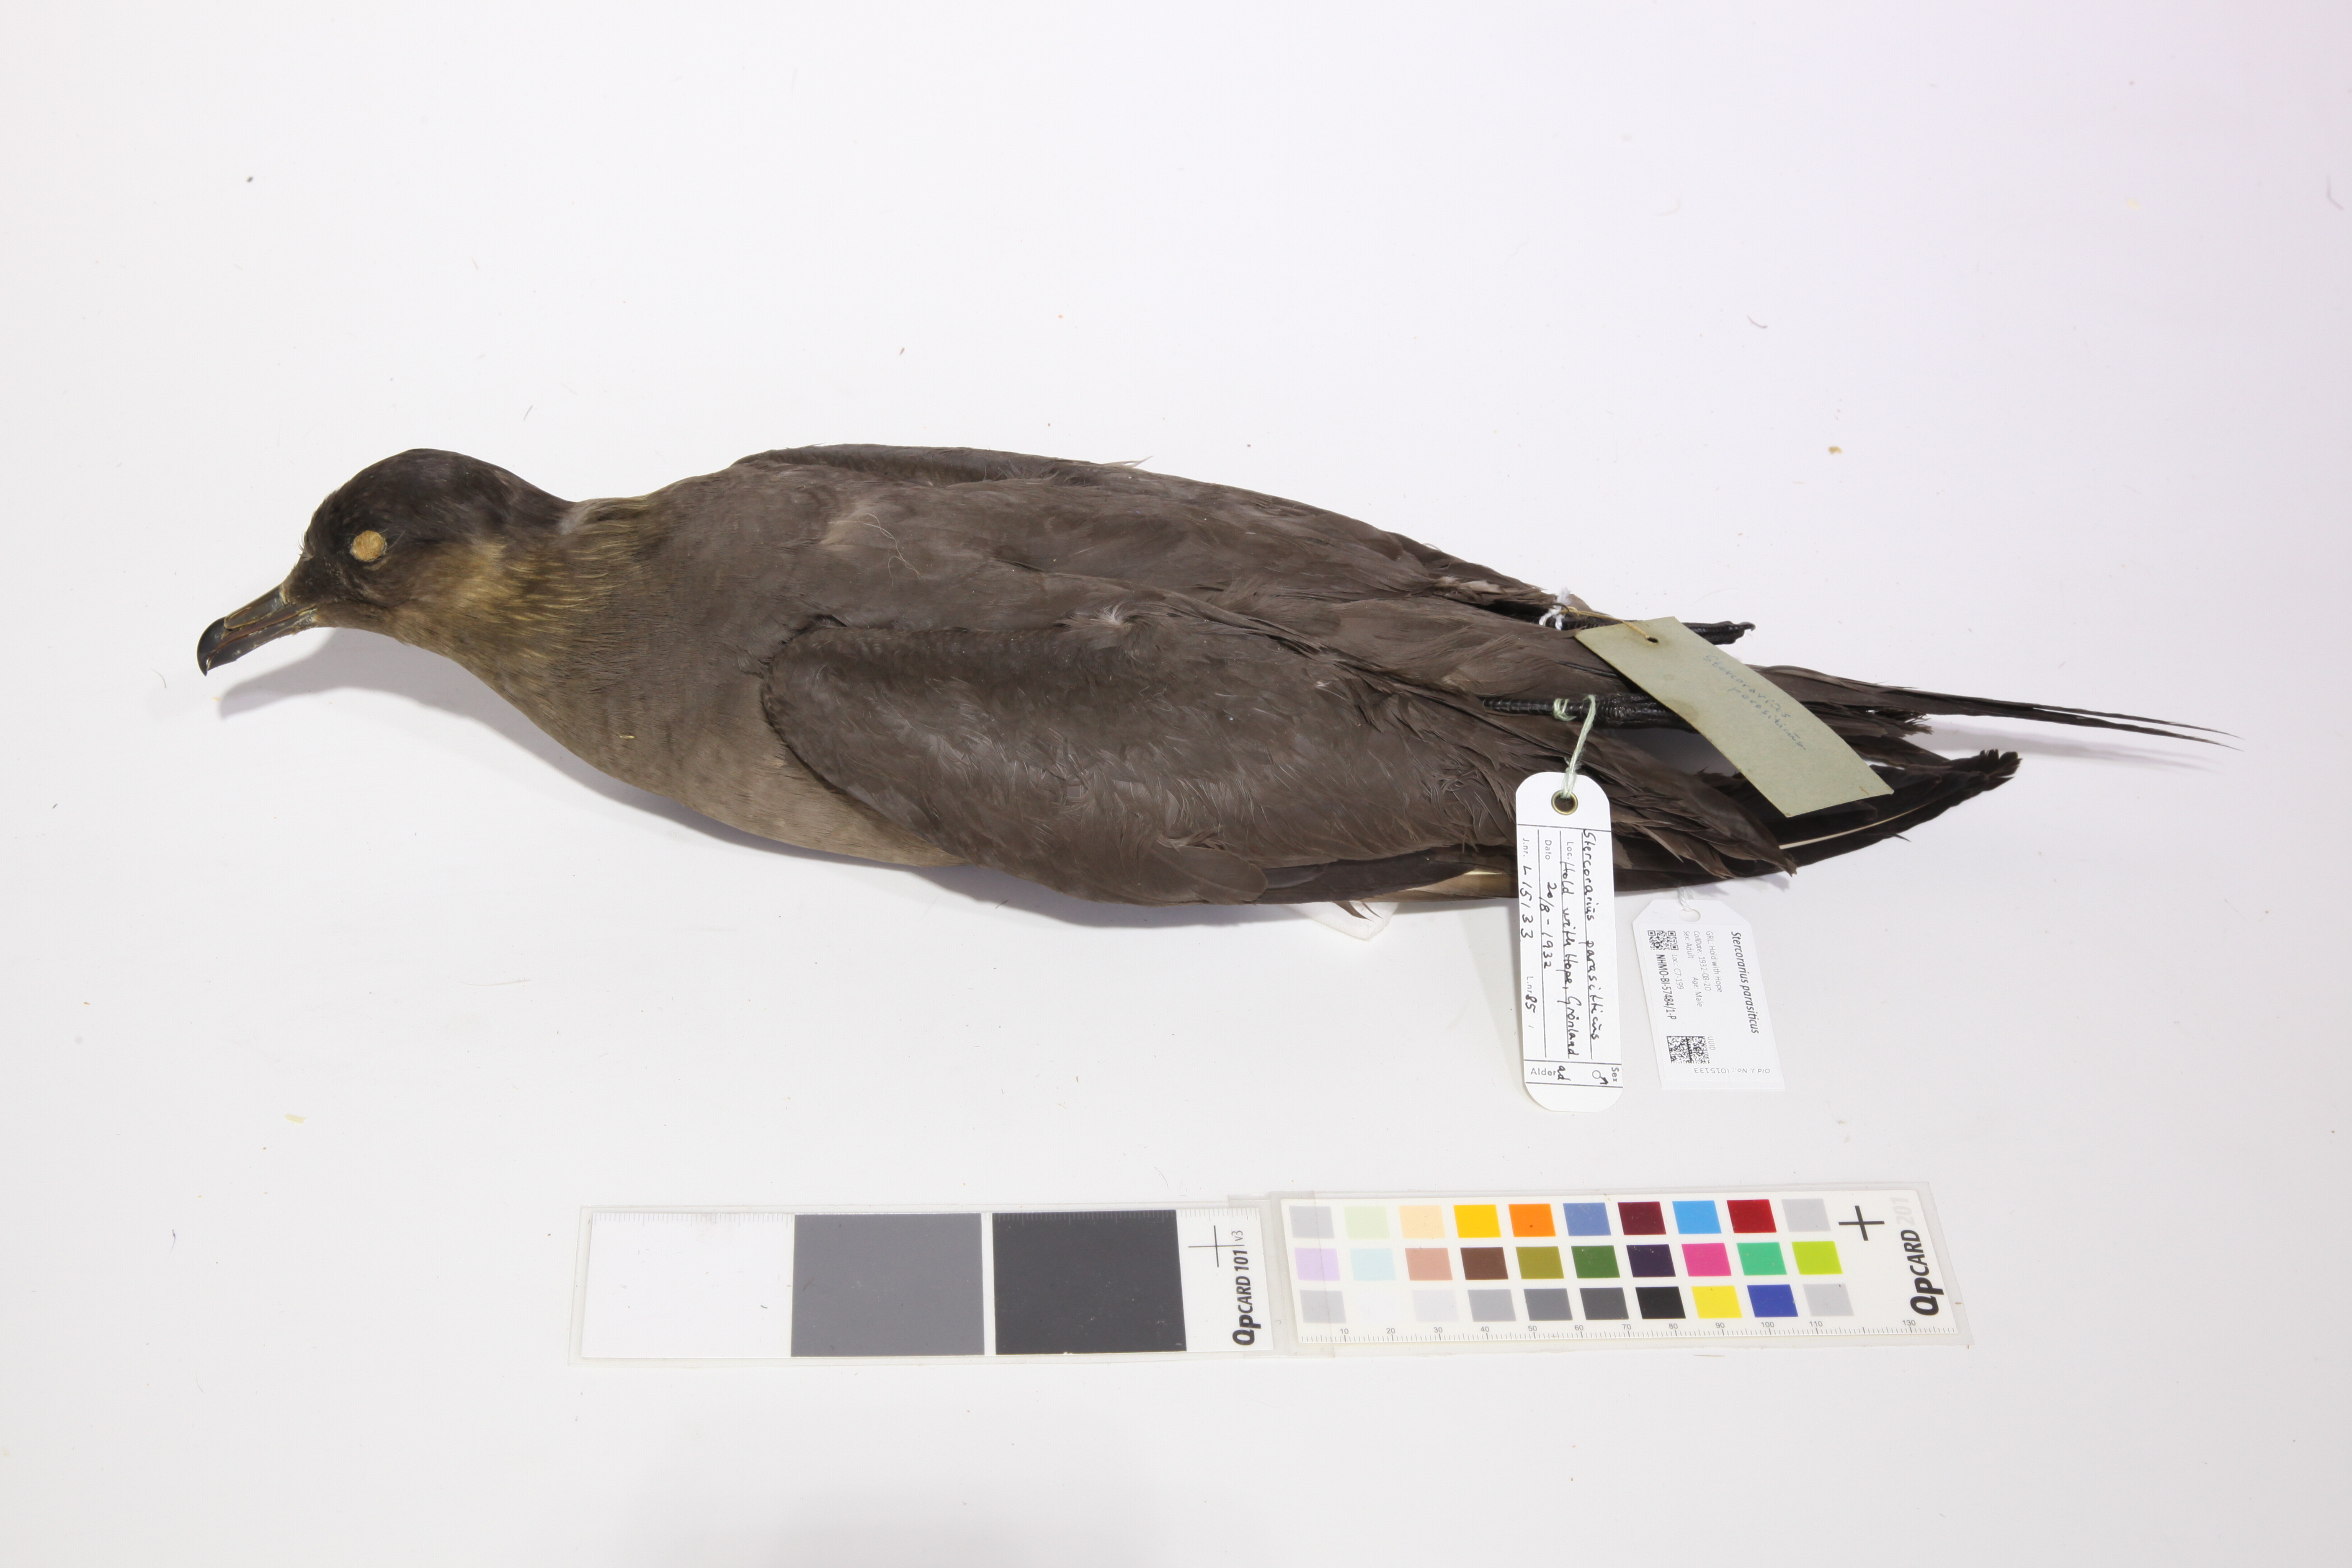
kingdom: Animalia
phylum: Chordata
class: Aves
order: Charadriiformes
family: Stercorariidae
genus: Stercorarius
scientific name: Stercorarius parasiticus
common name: Parasitic jaeger
